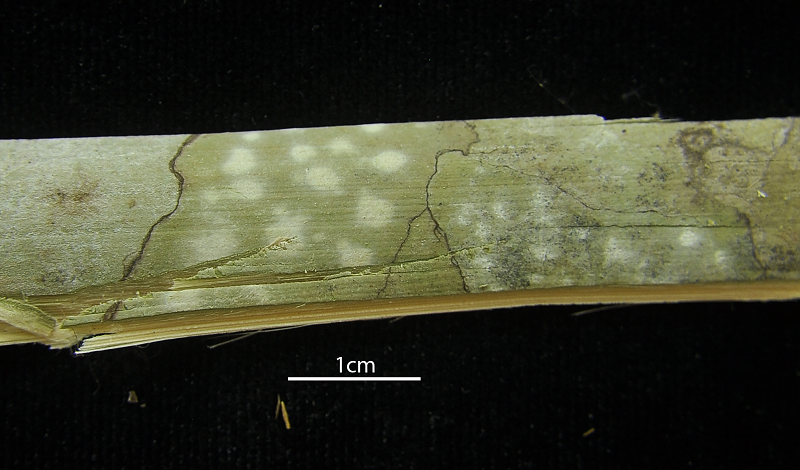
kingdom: Fungi
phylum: Ascomycota
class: Arthoniomycetes
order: Arthoniales
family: Arthoniaceae
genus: Myriostigma
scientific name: Myriostigma candidum
